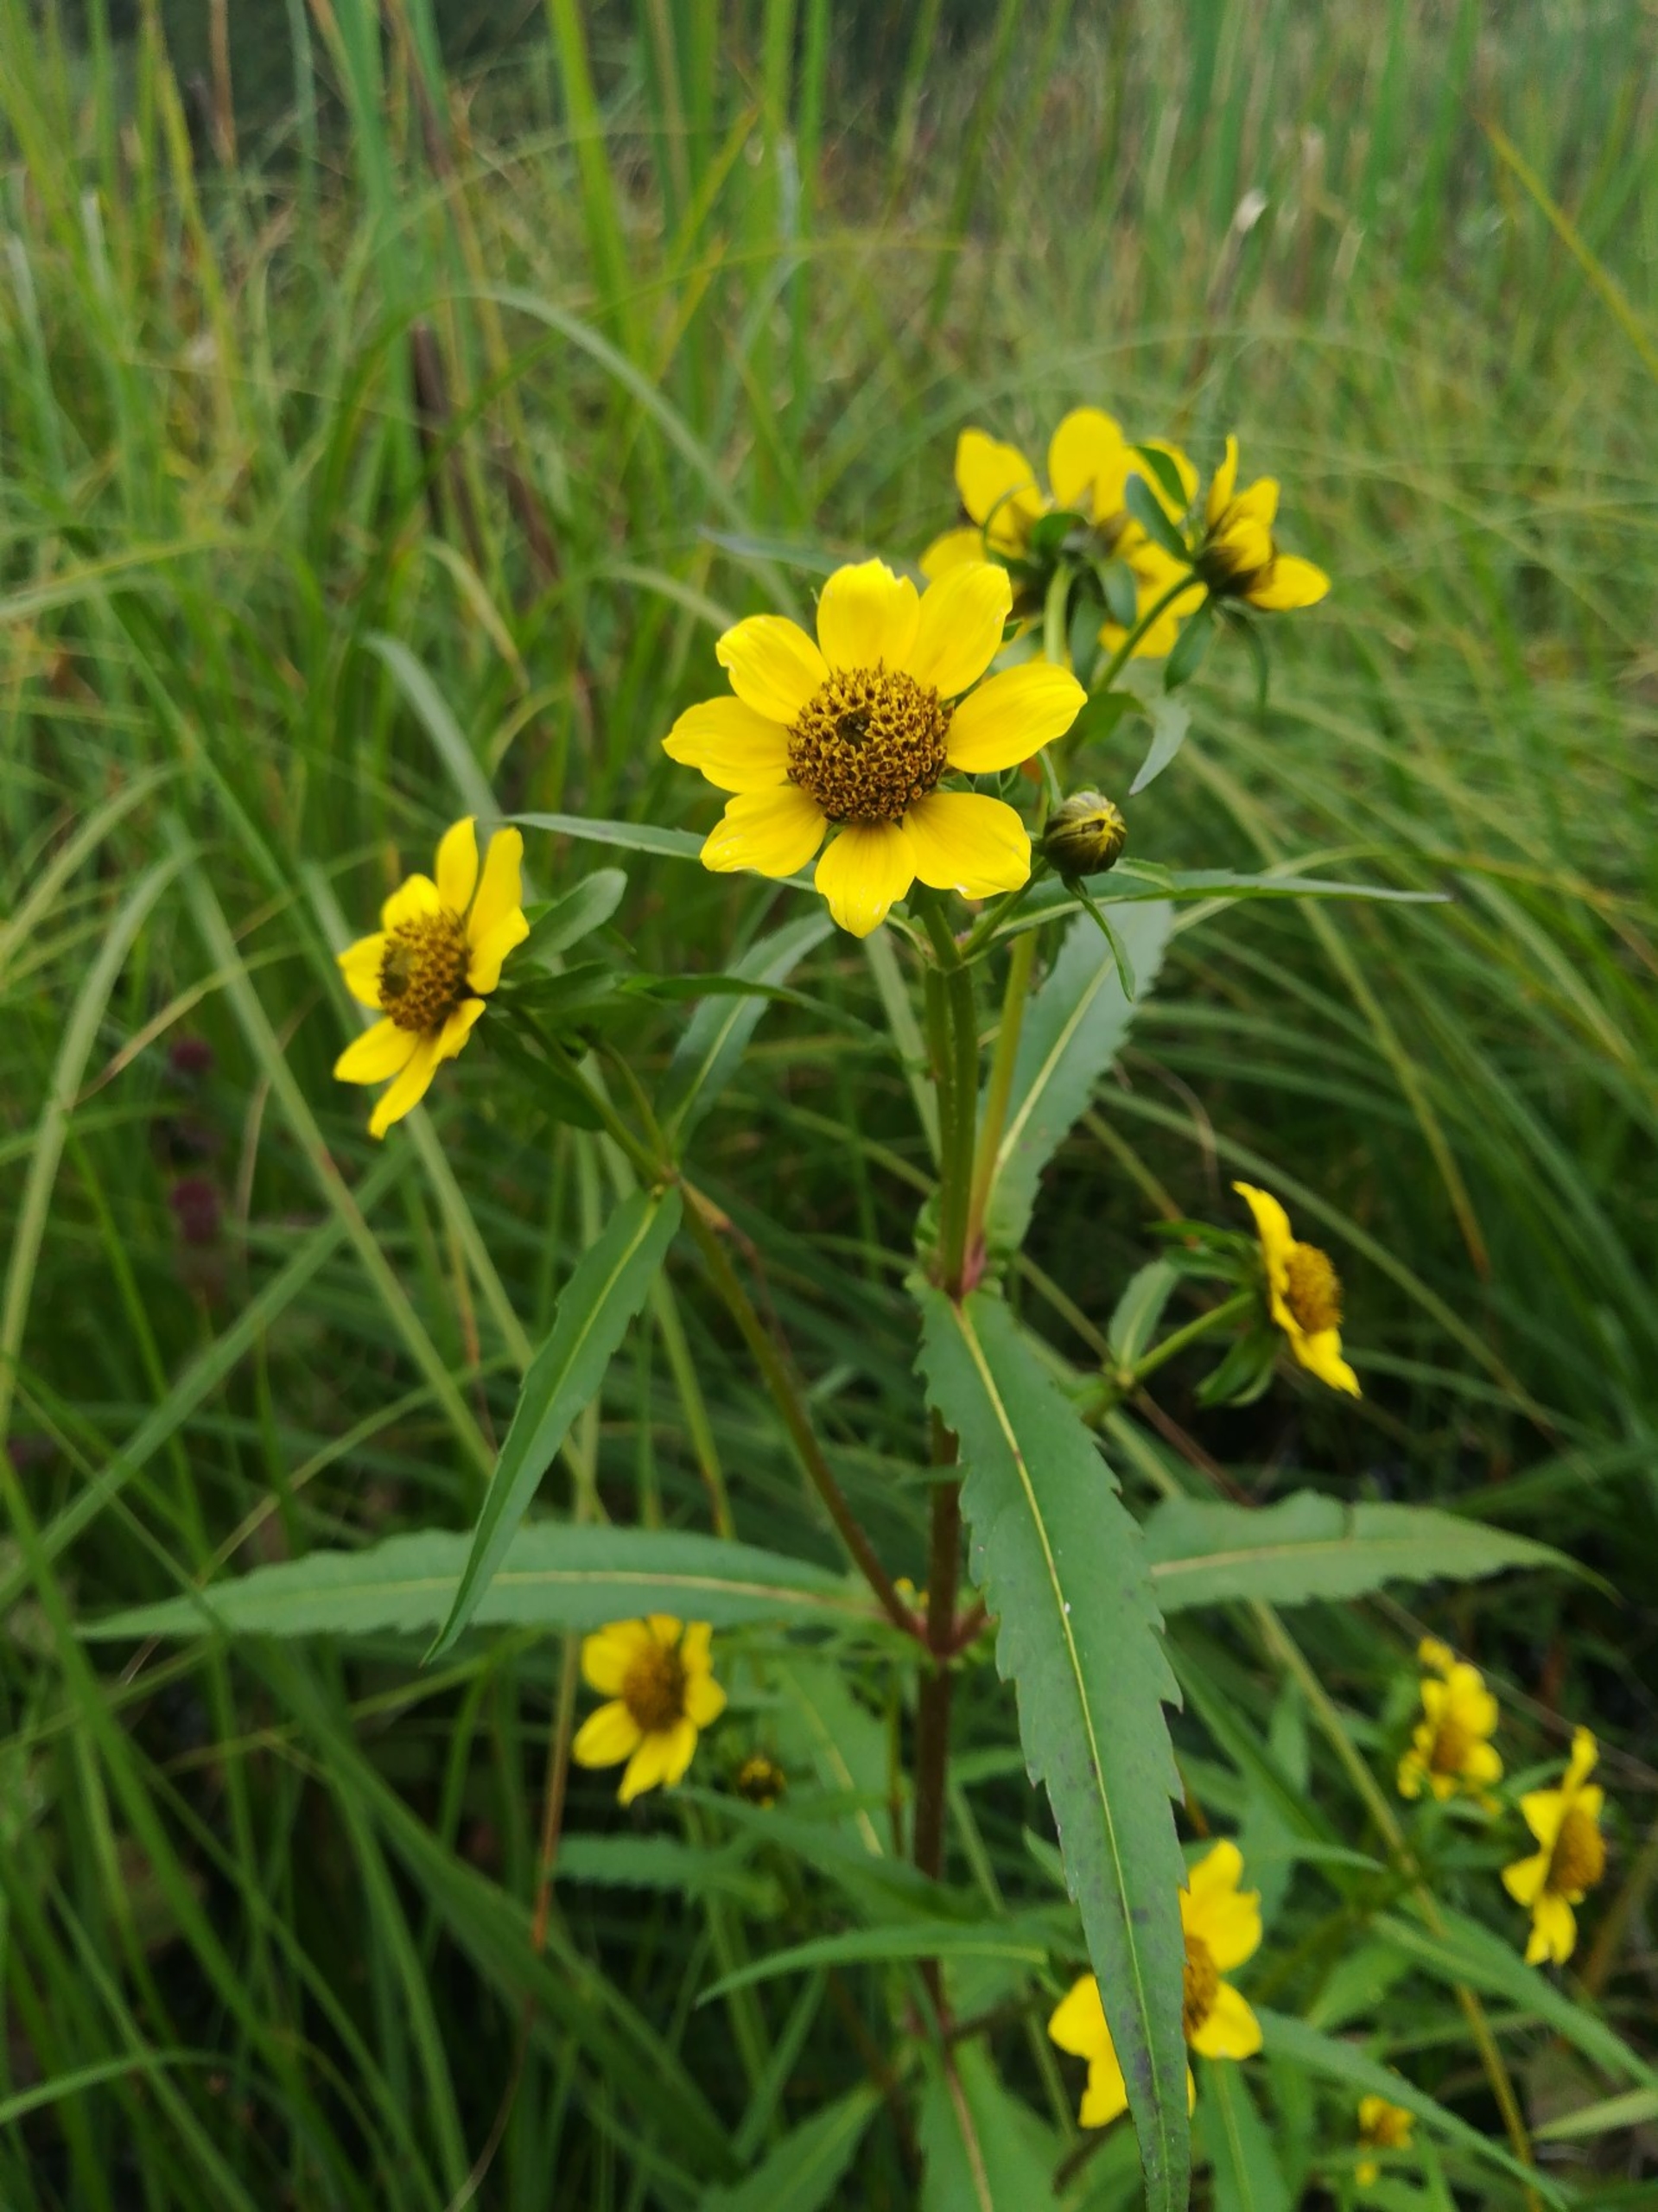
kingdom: Plantae
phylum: Tracheophyta
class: Magnoliopsida
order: Asterales
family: Asteraceae
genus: Bidens
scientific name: Bidens cernua
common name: Nikkende brøndsel
